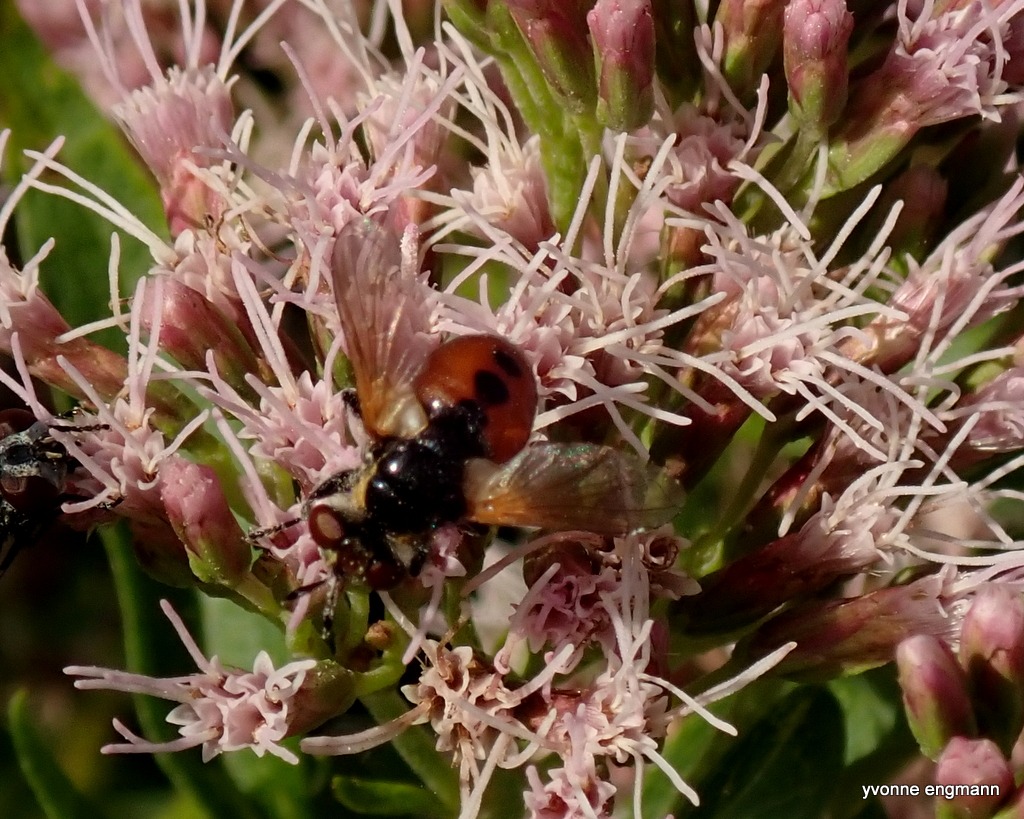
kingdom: Animalia
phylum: Arthropoda
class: Insecta
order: Diptera
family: Tachinidae
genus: Gymnosoma
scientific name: Gymnosoma rotundatum
